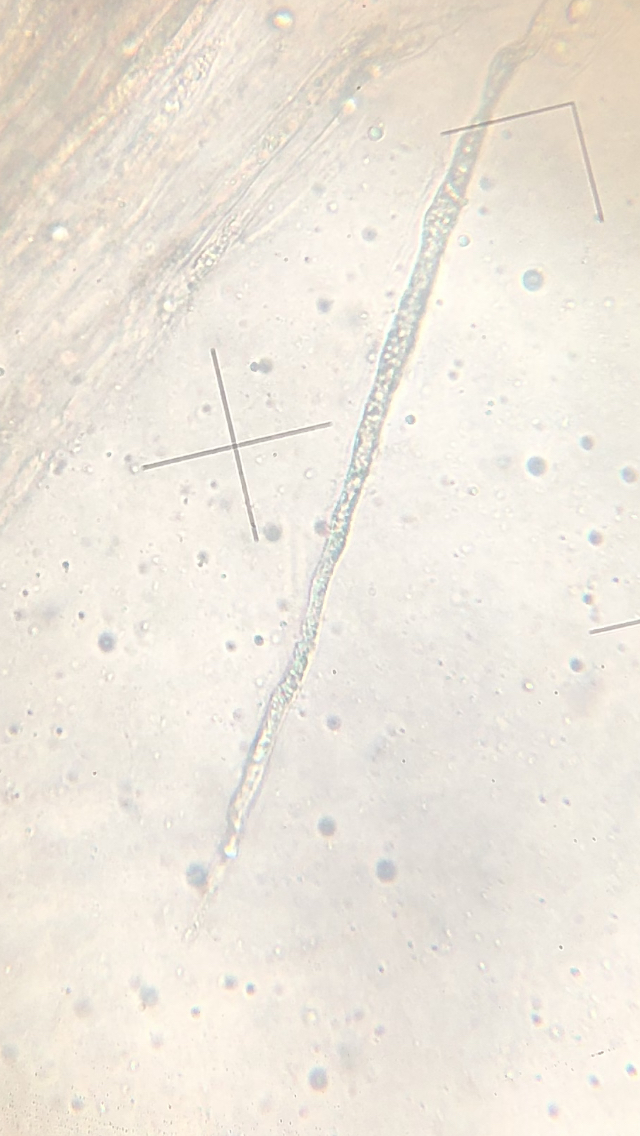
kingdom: Fungi
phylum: Basidiomycota
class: Agaricomycetes
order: Russulales
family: Peniophoraceae
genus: Gloiothele
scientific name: Gloiothele lactescens
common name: bitter olieskind
